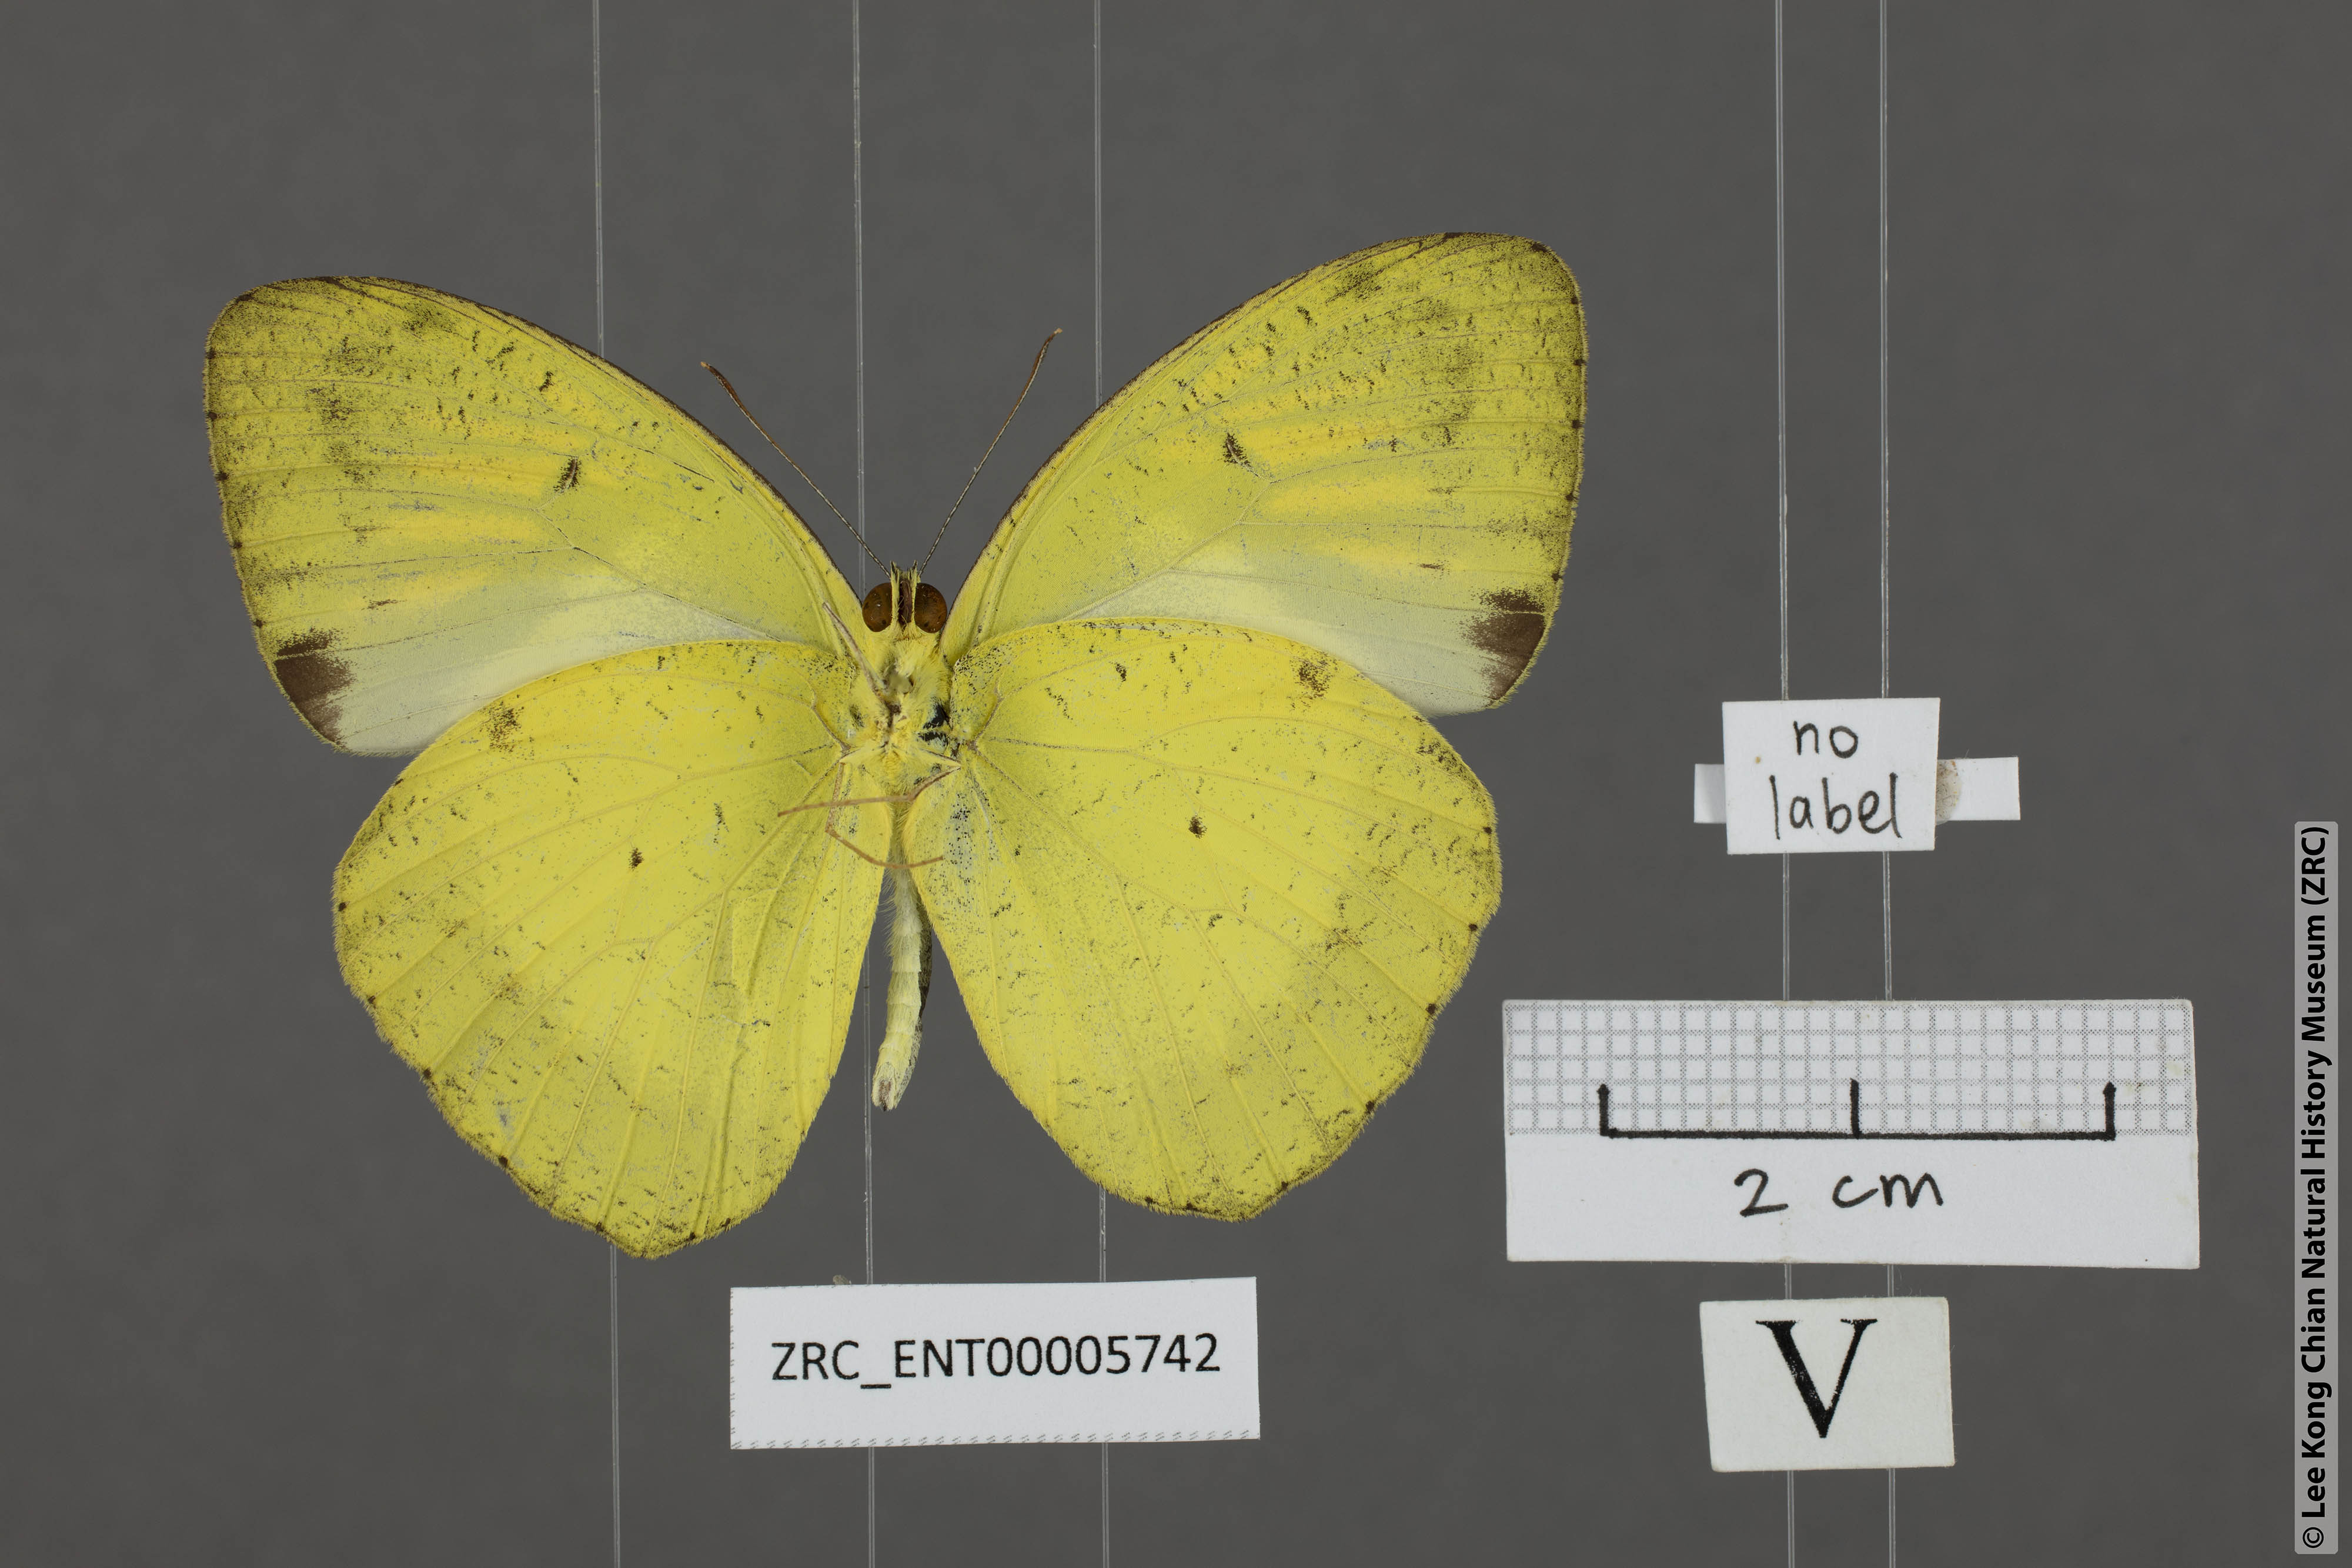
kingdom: Animalia
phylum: Arthropoda
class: Insecta
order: Lepidoptera
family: Pieridae
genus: Ixias
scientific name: Ixias pyrene
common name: Yellow orange tip
